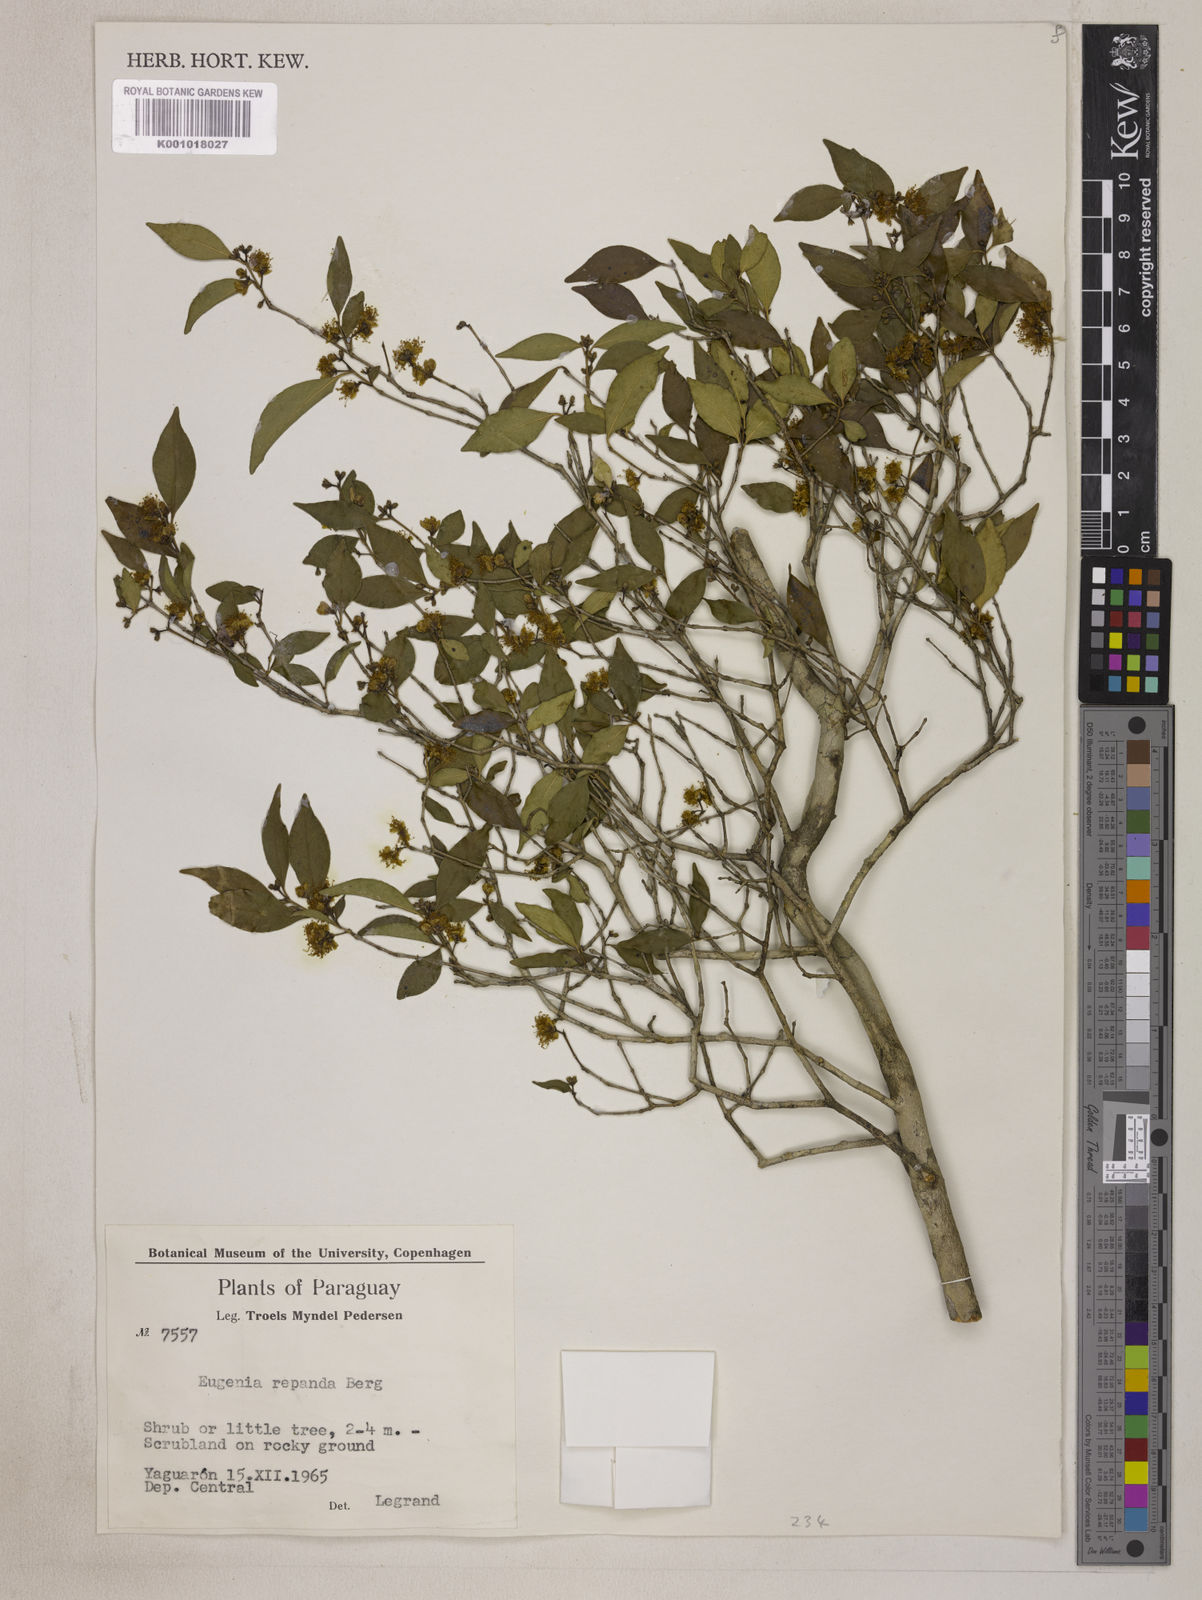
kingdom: Plantae
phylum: Tracheophyta
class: Magnoliopsida
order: Myrtales
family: Myrtaceae
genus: Eugenia
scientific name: Eugenia repanda
